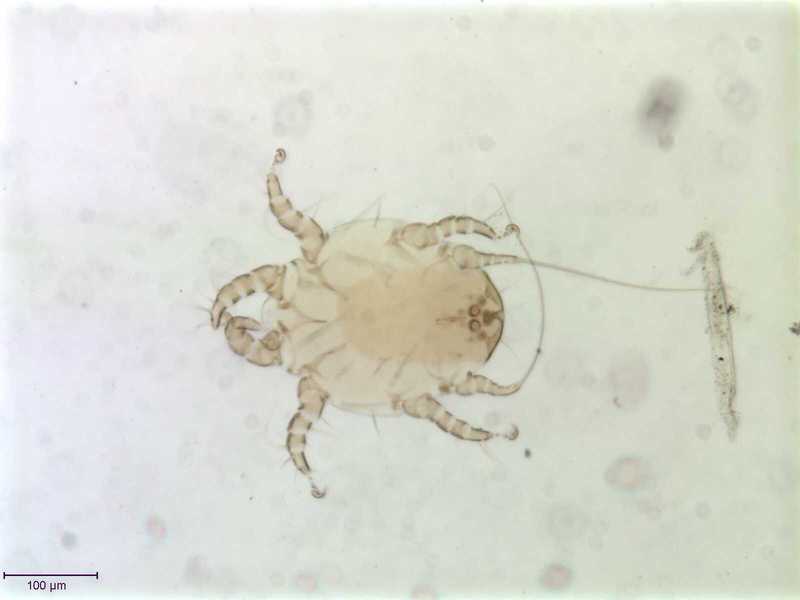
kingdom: Animalia
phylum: Arthropoda
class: Arachnida
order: Sarcoptiformes
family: Chaetodactylidae
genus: Sennertia
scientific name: Sennertia caffra
